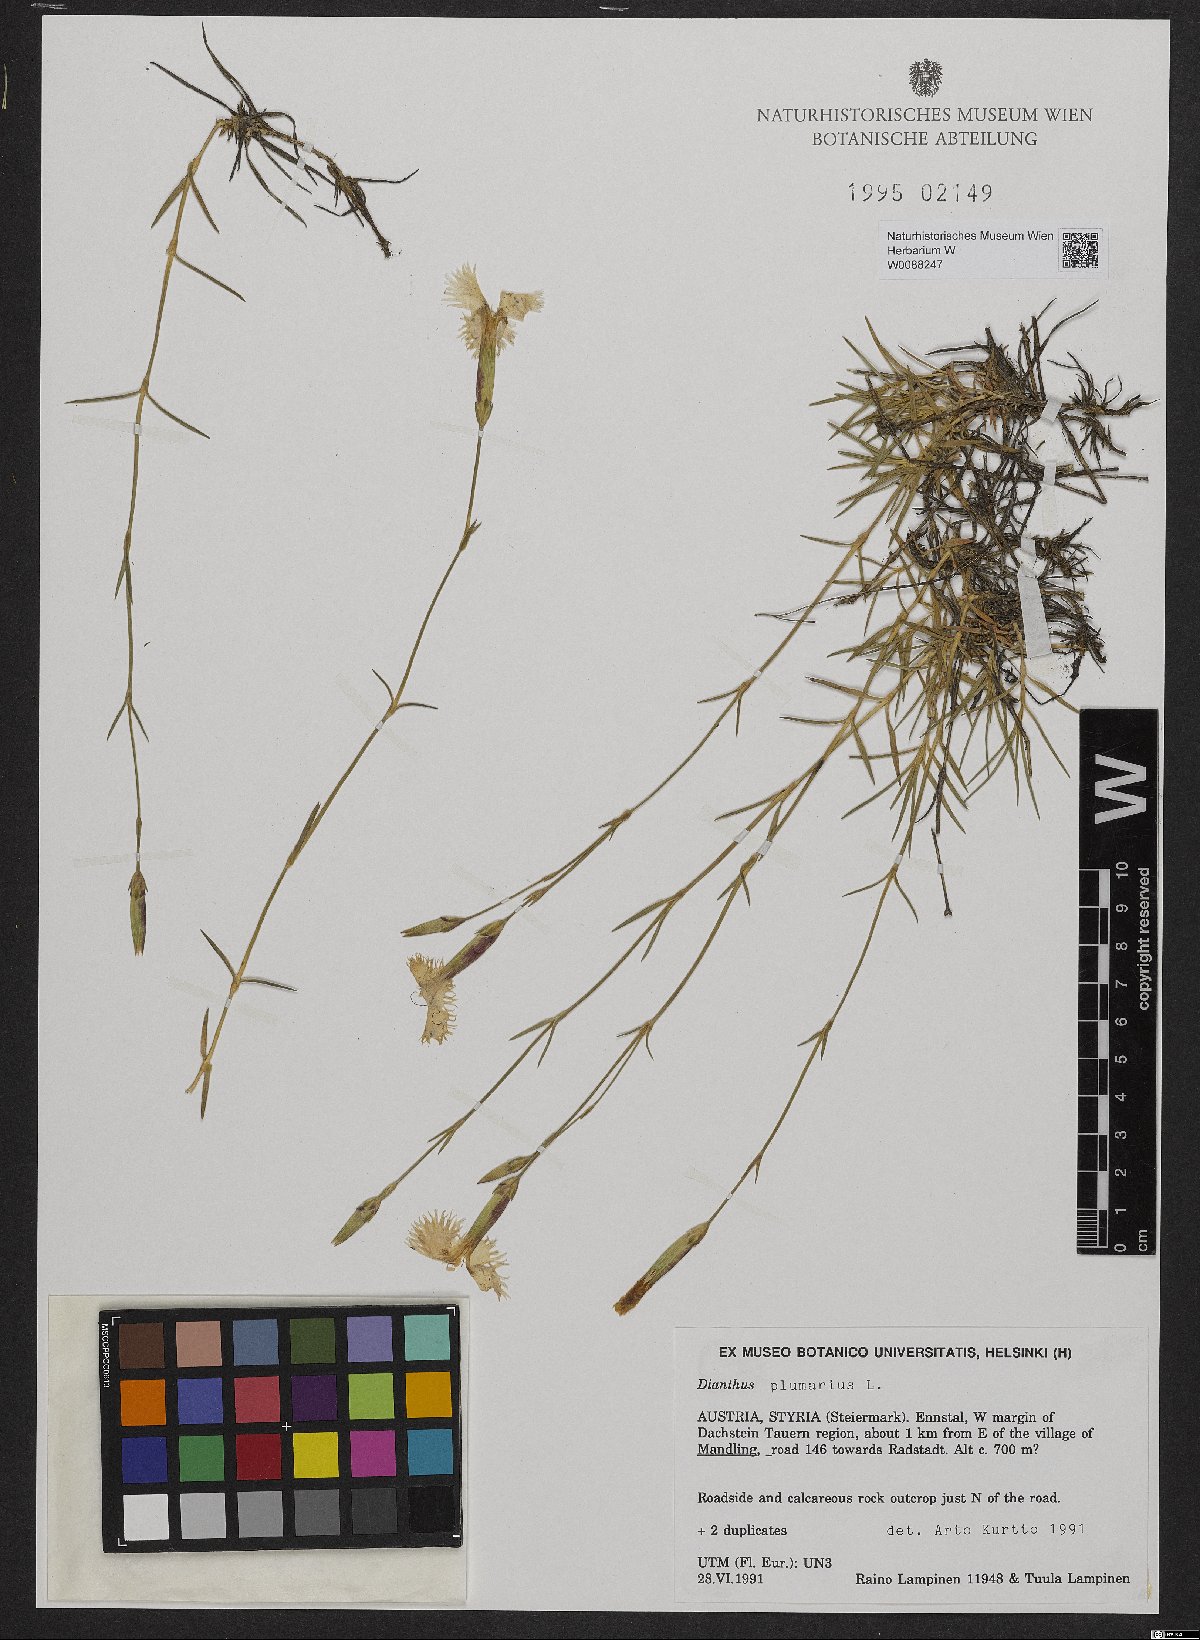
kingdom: Plantae
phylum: Tracheophyta
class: Magnoliopsida
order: Caryophyllales
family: Caryophyllaceae
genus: Dianthus
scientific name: Dianthus plumarius
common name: Pink
